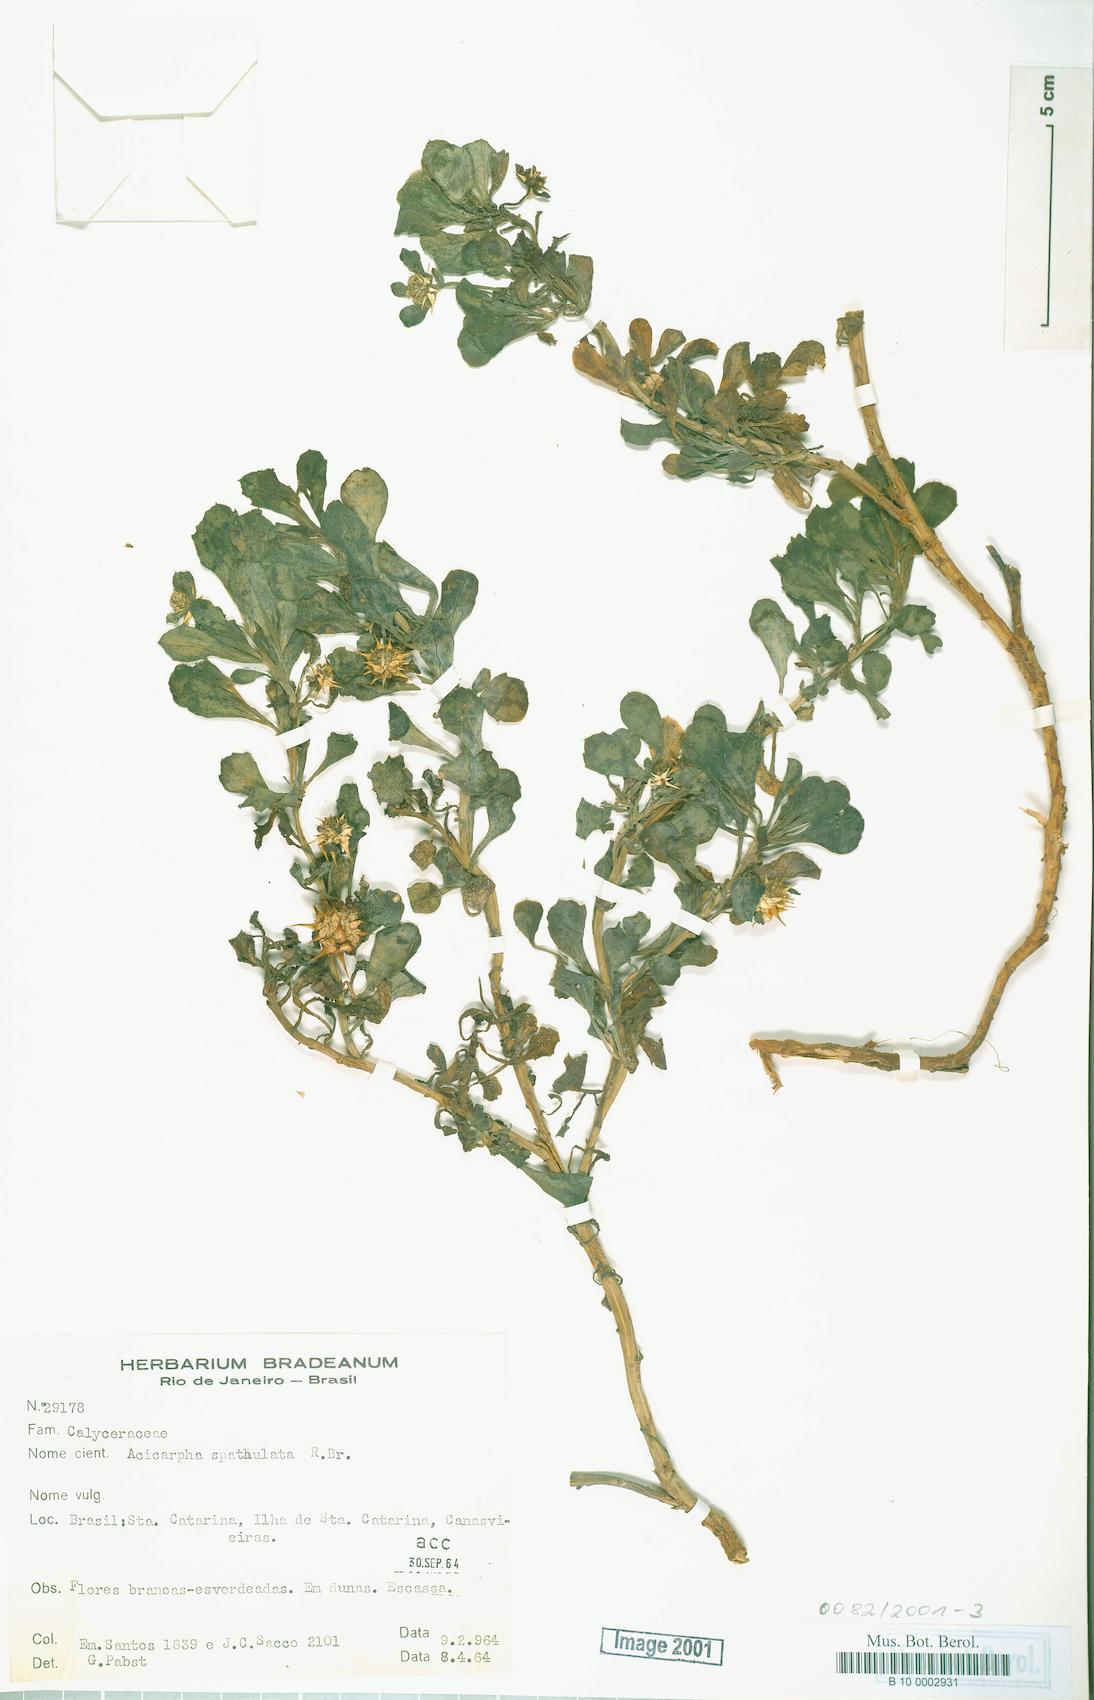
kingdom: Plantae
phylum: Tracheophyta
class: Magnoliopsida
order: Asterales
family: Calyceraceae
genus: Acicarpha
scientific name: Acicarpha spathulata
